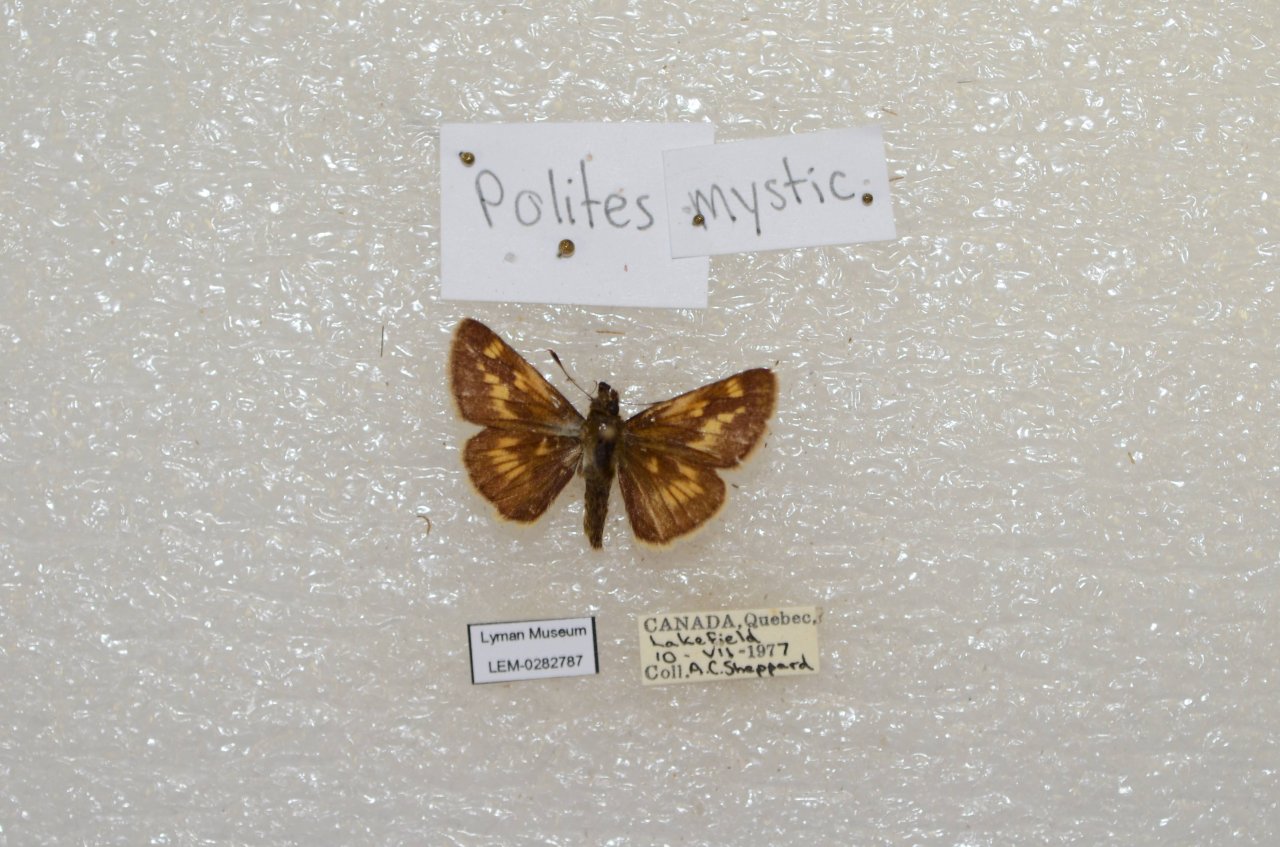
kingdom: Animalia
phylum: Arthropoda
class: Insecta
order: Lepidoptera
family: Hesperiidae
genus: Polites
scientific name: Polites
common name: Long Dash Skipper
